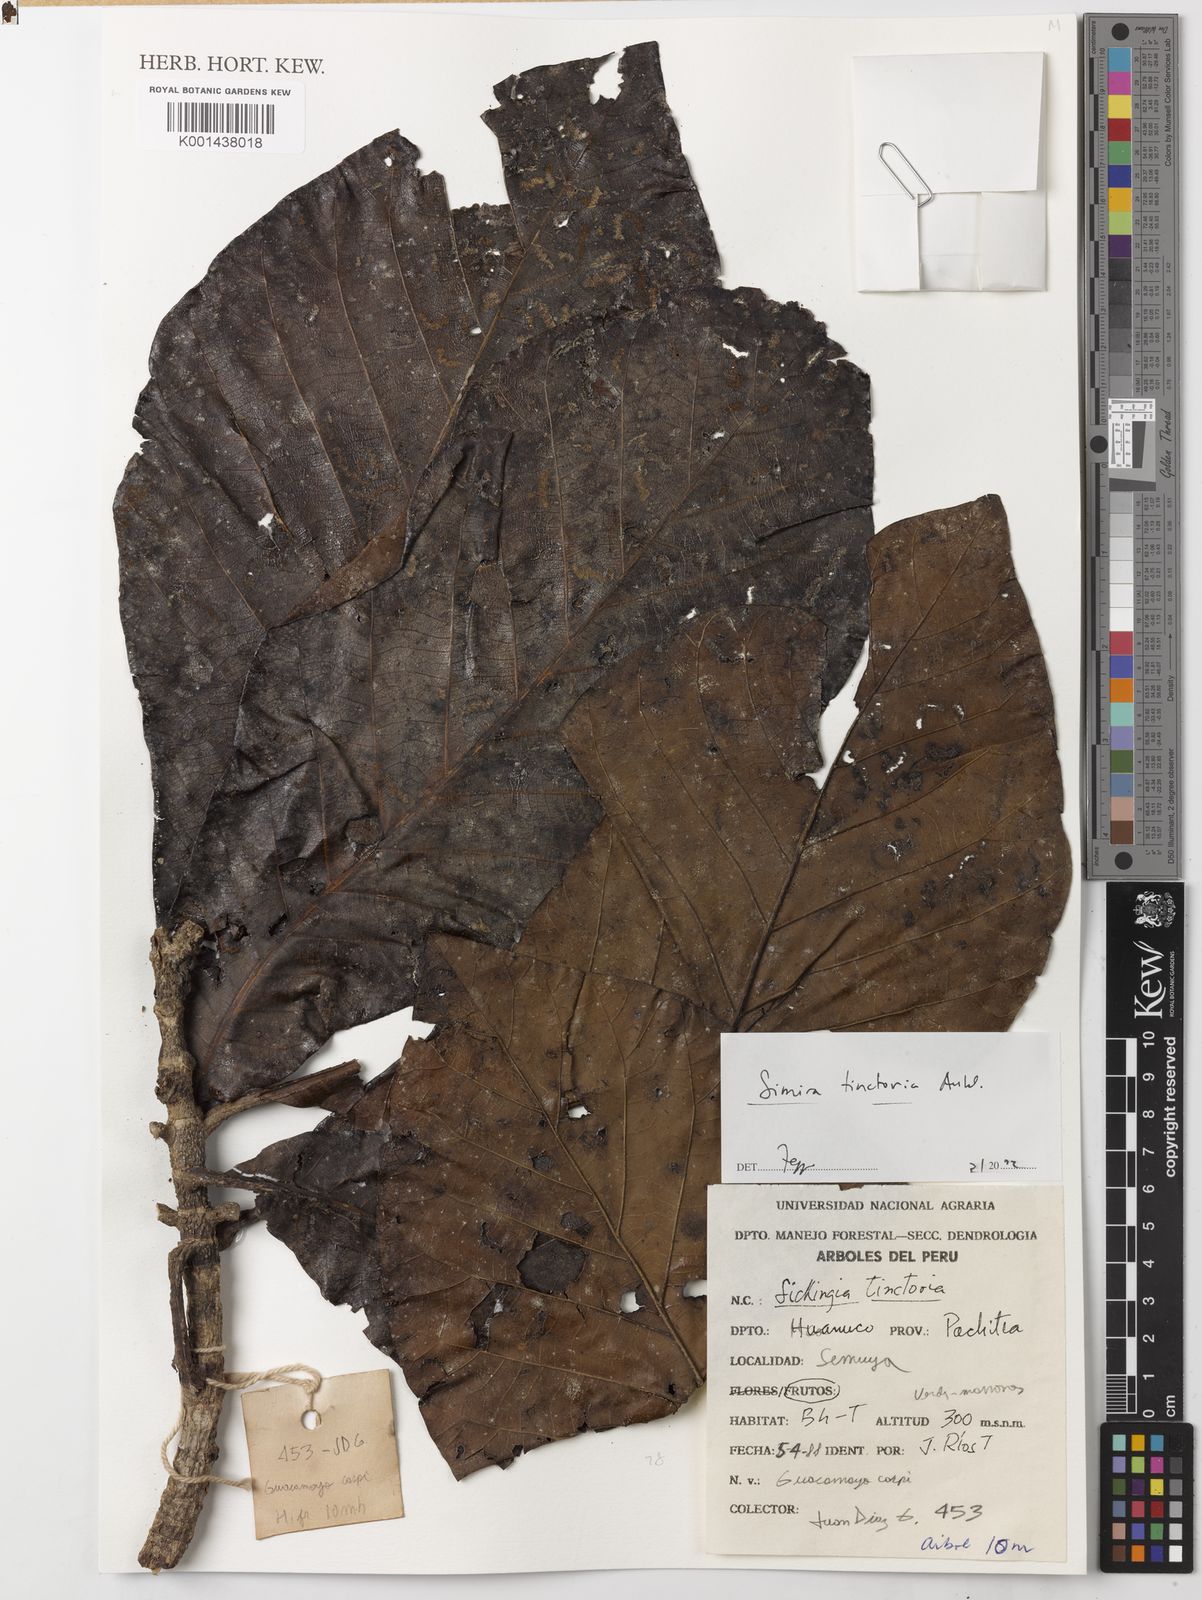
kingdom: Plantae
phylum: Tracheophyta
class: Magnoliopsida
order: Gentianales
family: Rubiaceae
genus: Simira
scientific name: Simira tinctoria
